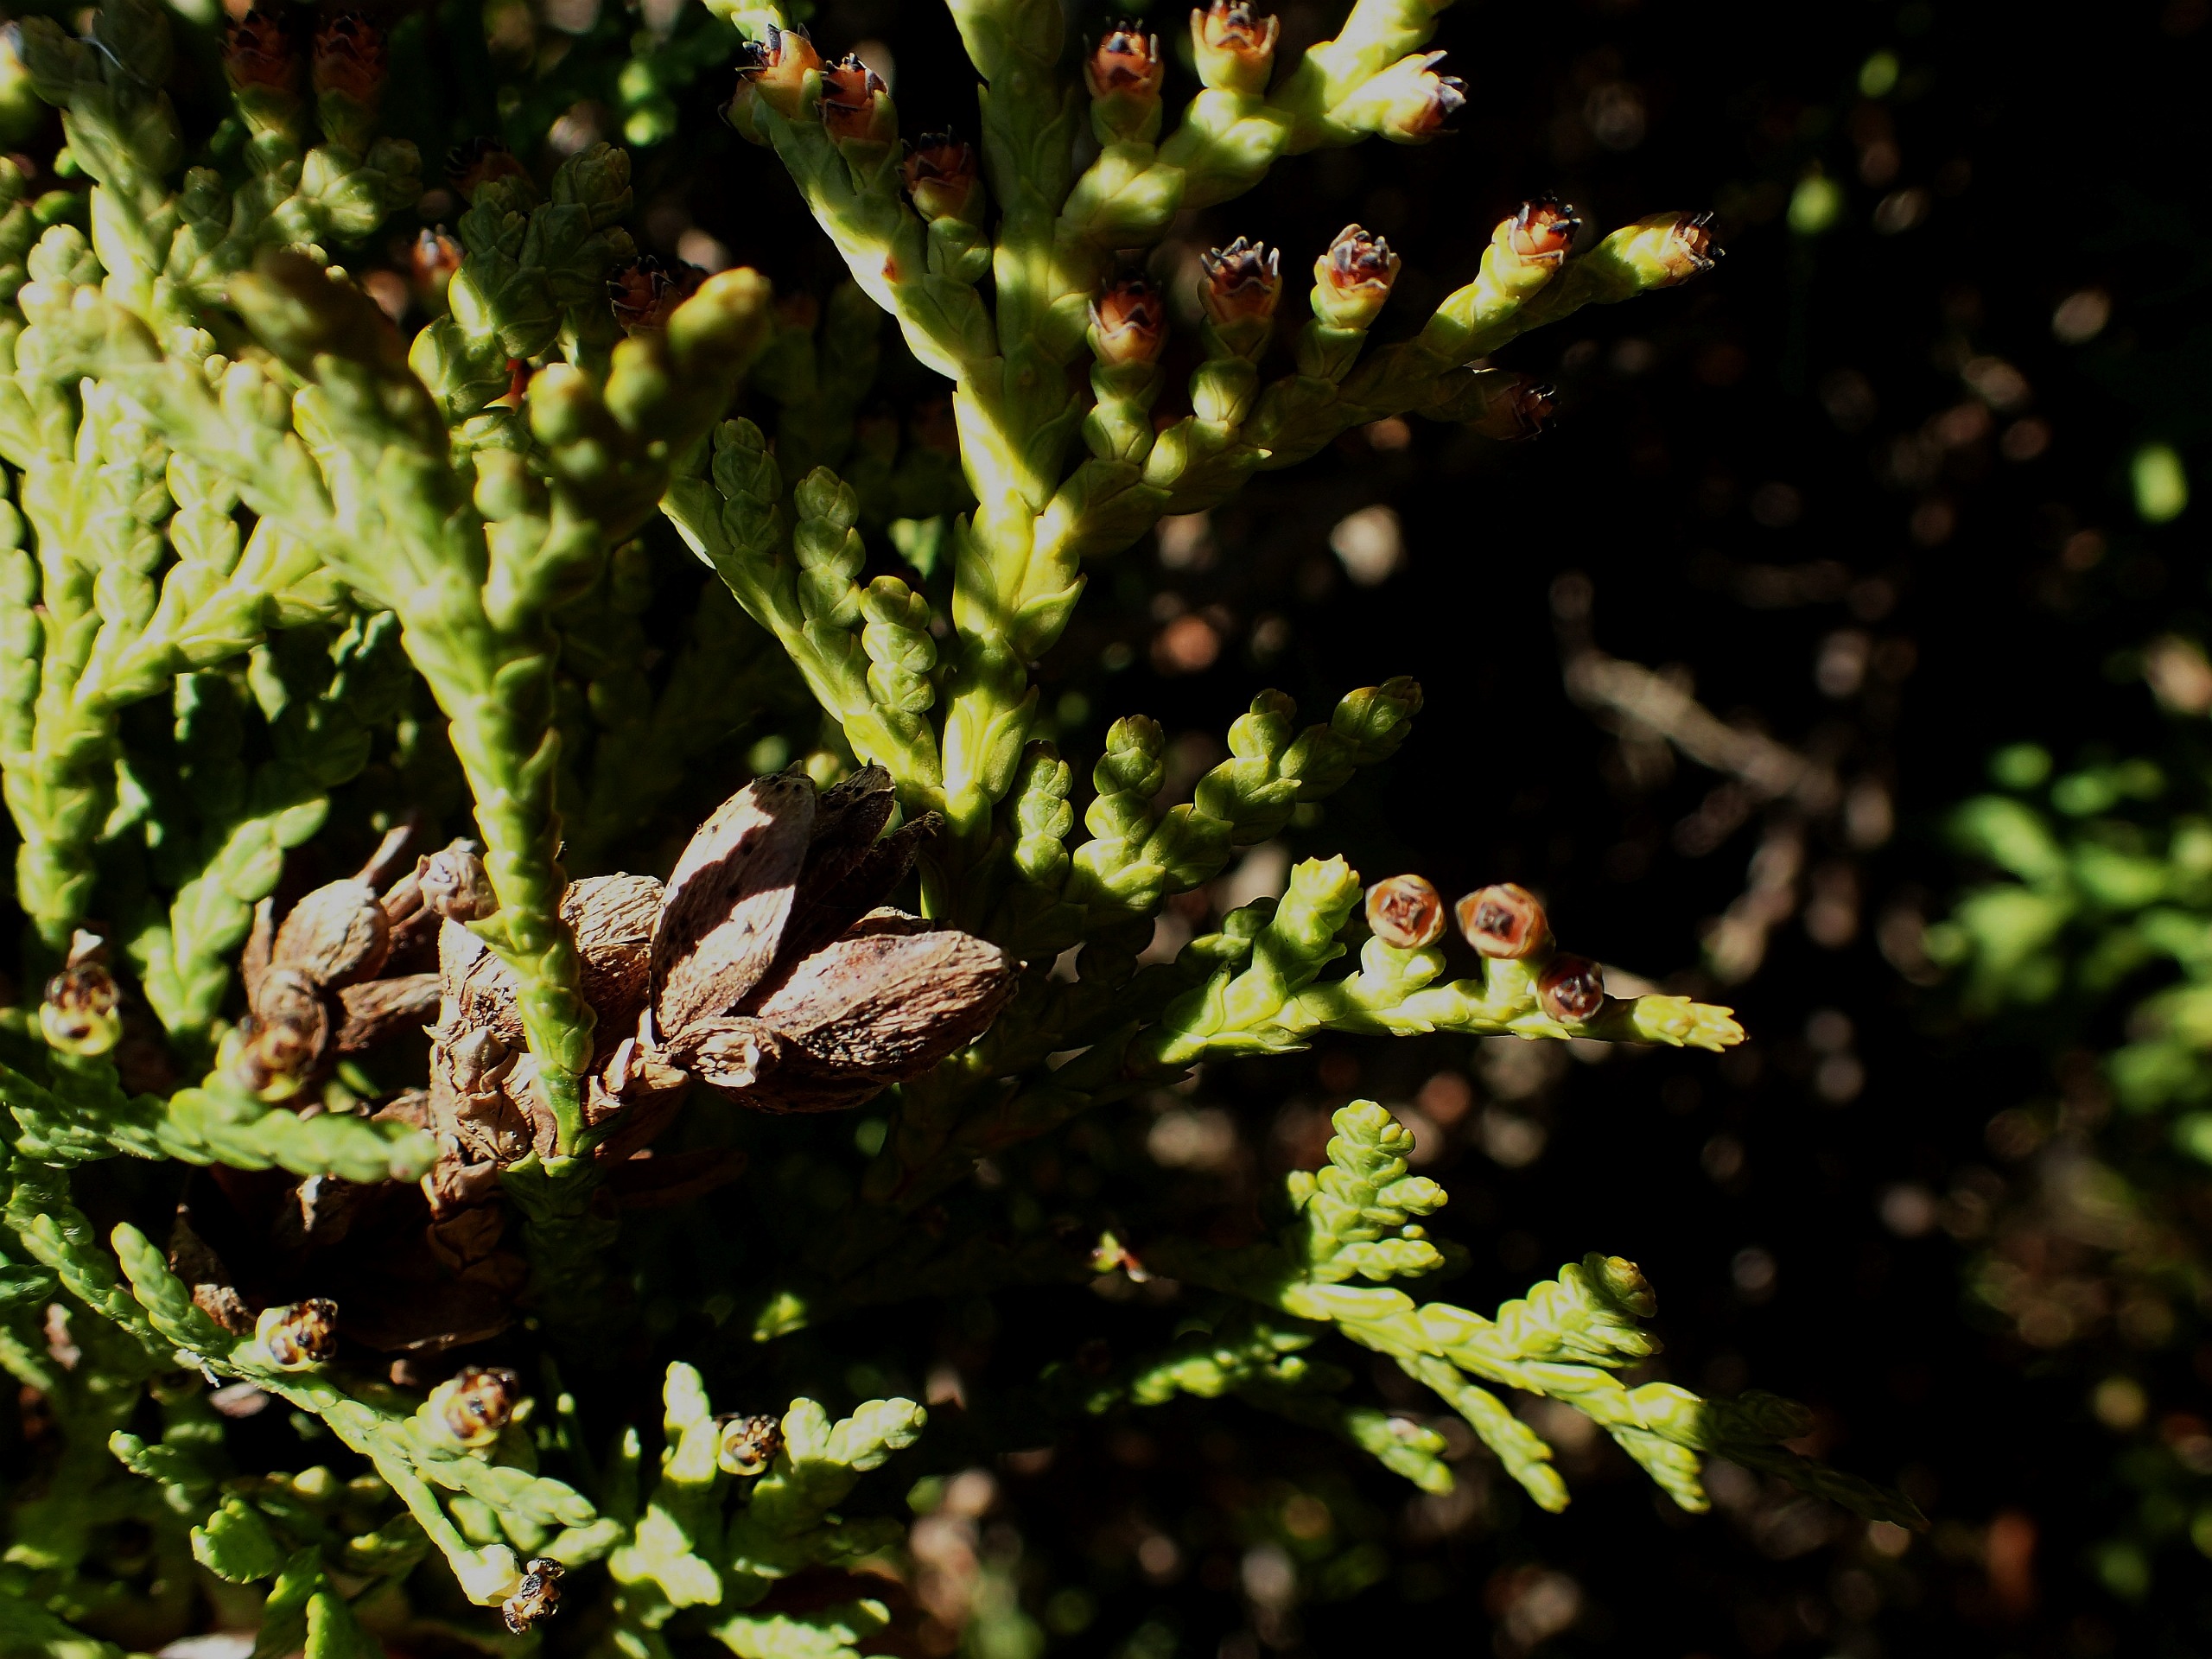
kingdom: Plantae
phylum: Tracheophyta
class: Pinopsida
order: Pinales
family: Cupressaceae
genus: Thuja
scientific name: Thuja occidentalis
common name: Almindelig thuja
